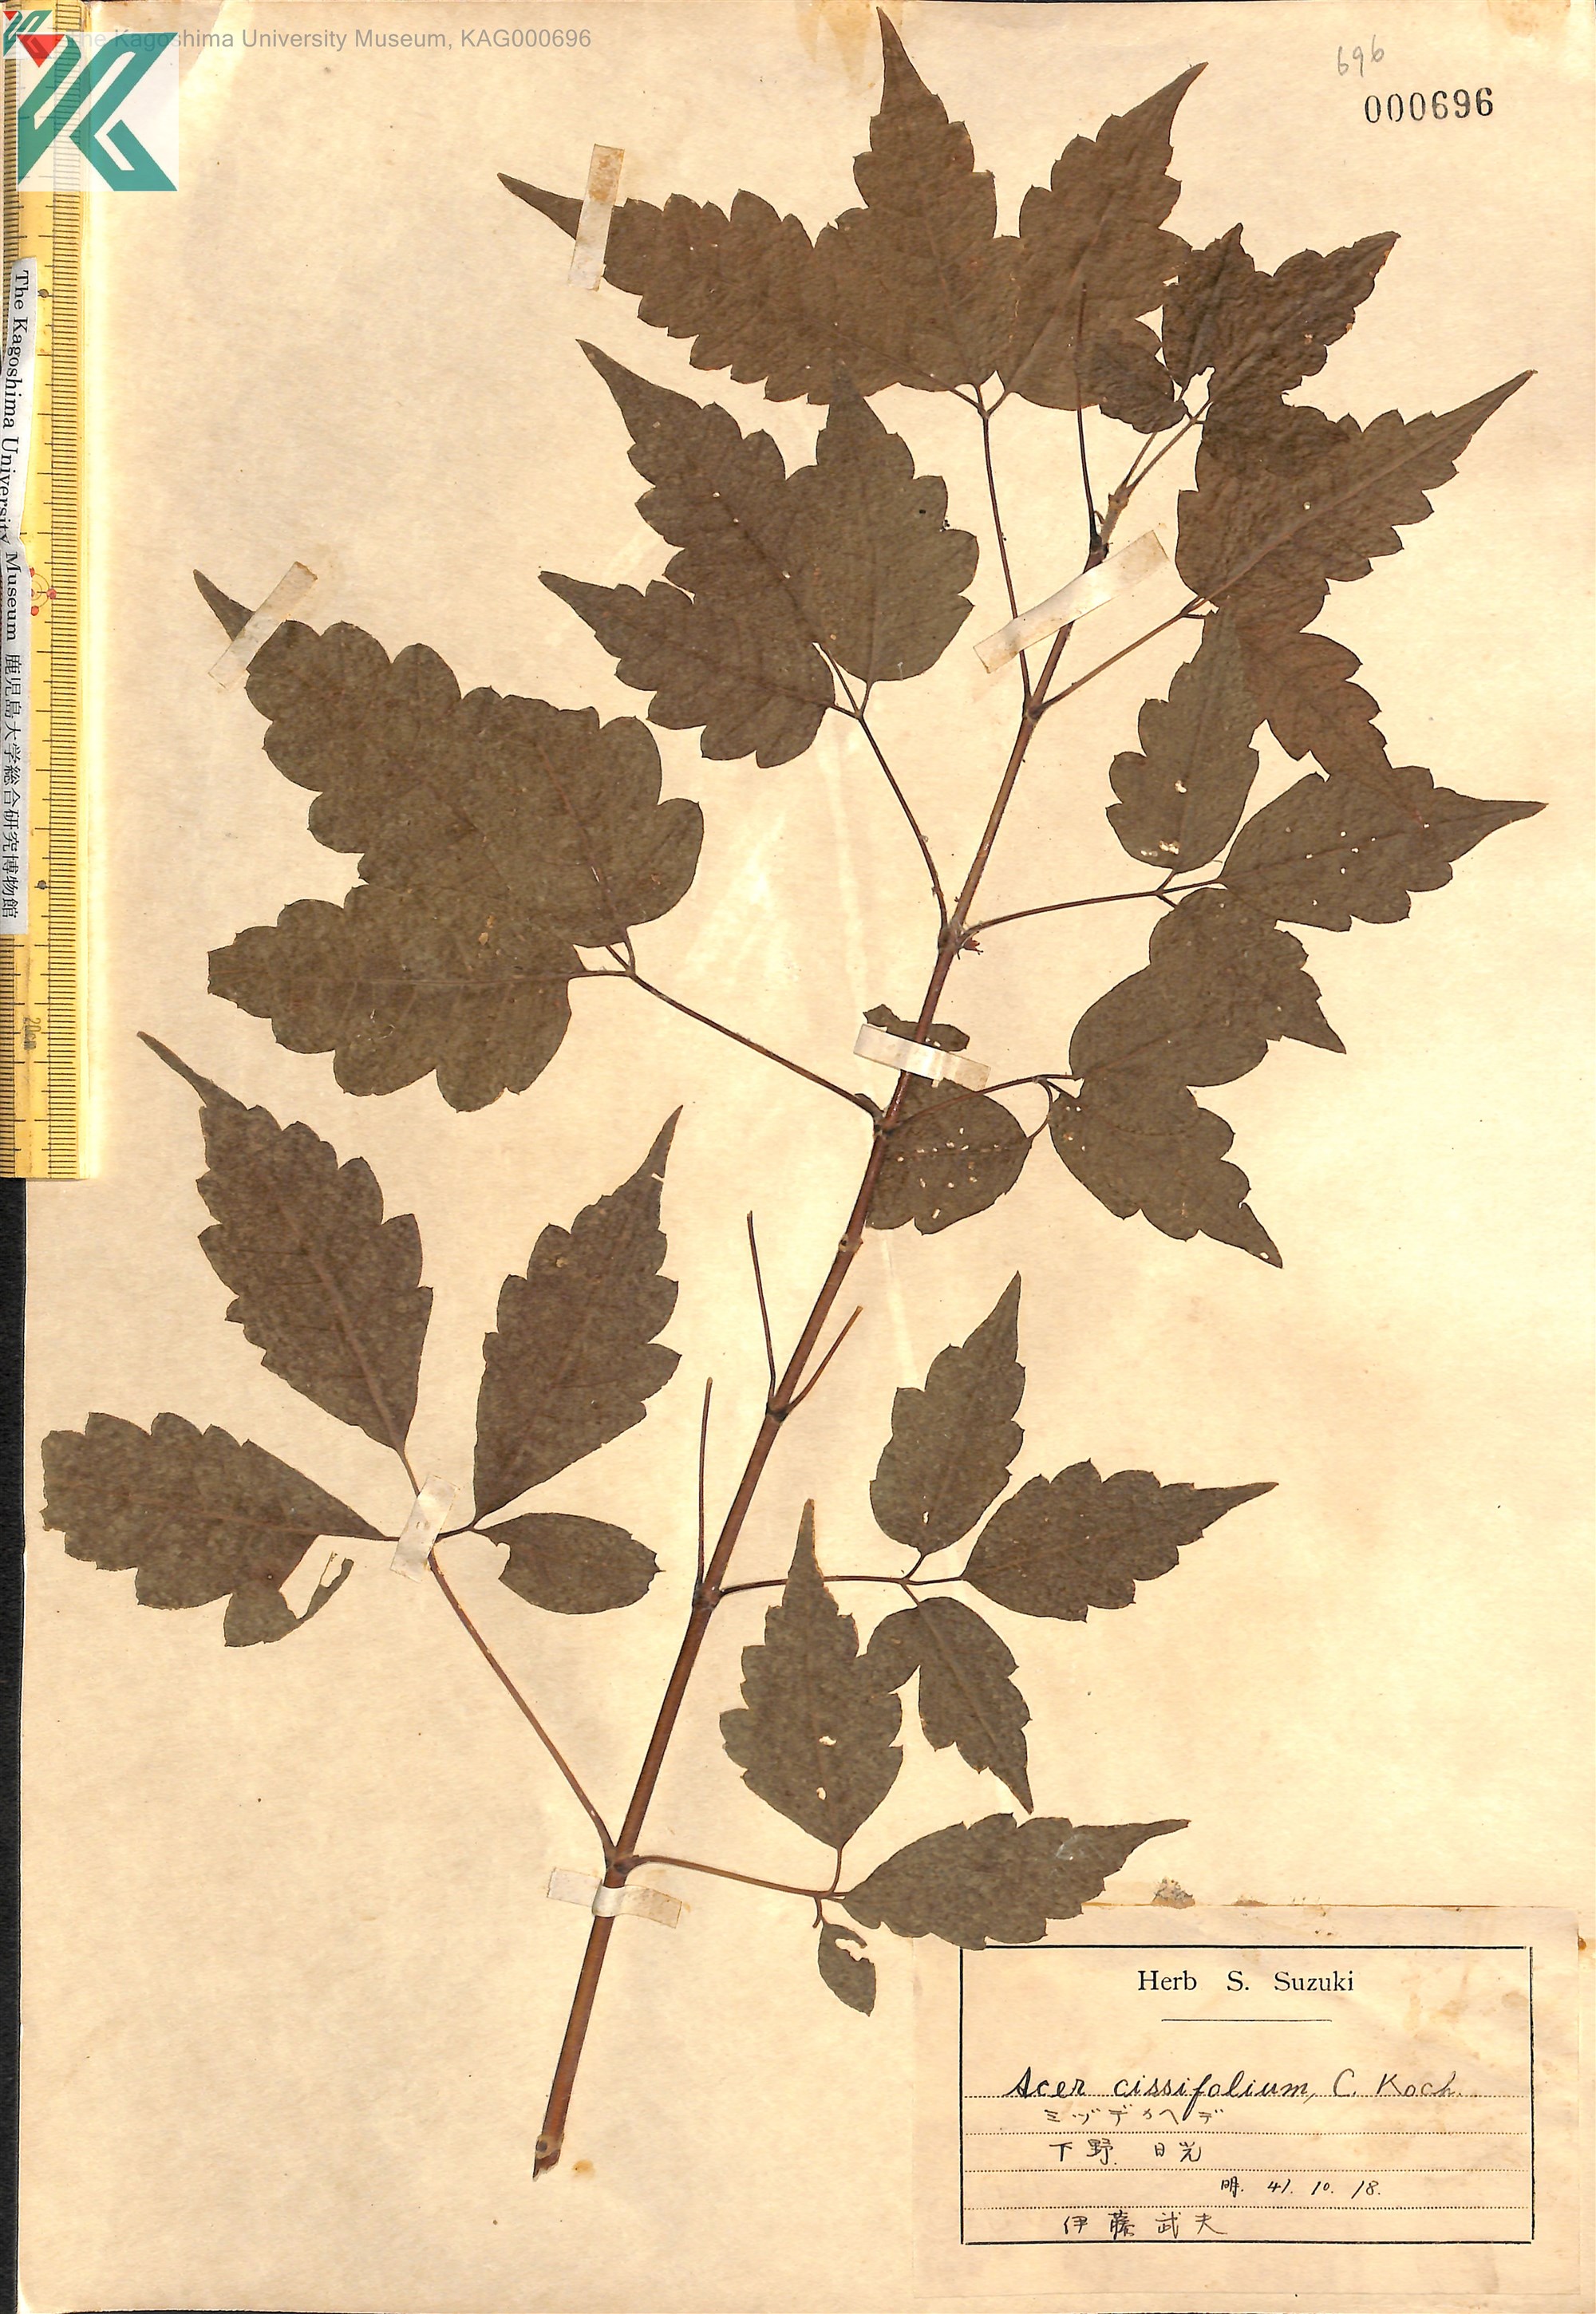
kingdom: Plantae
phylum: Tracheophyta
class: Magnoliopsida
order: Sapindales
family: Sapindaceae
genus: Acer
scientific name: Acer cissifolium
